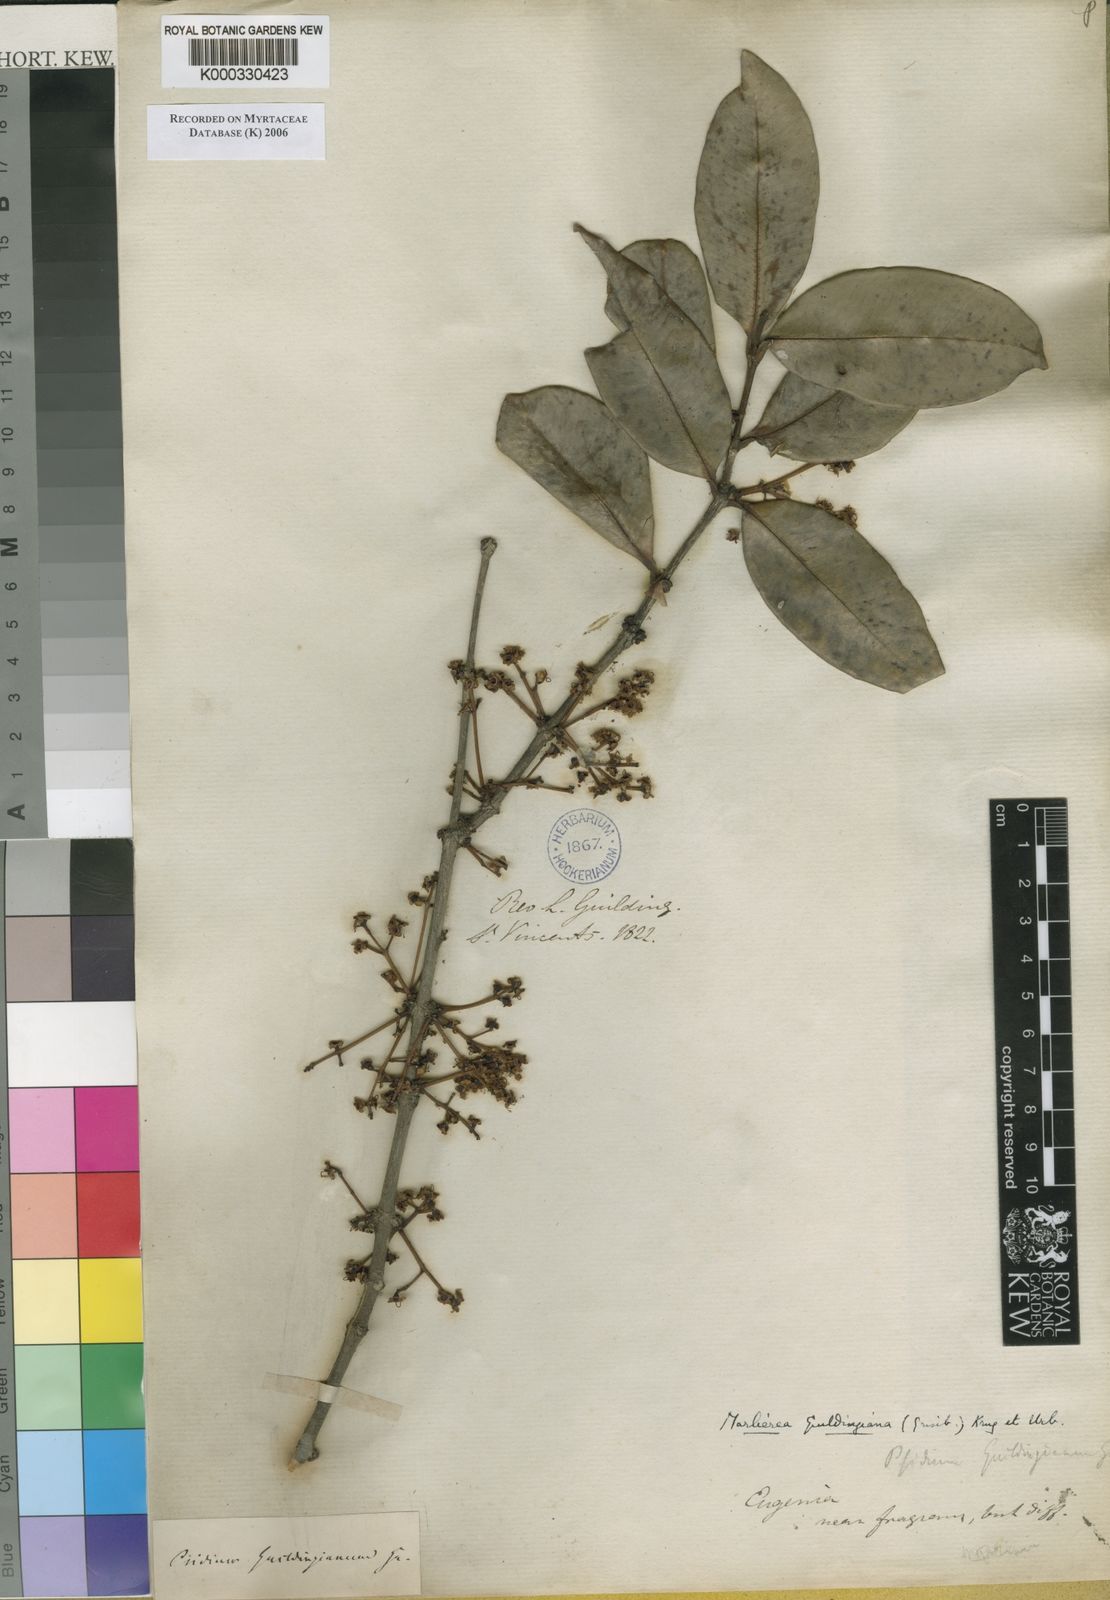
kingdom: Plantae
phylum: Tracheophyta
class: Magnoliopsida
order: Myrtales
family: Myrtaceae
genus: Myrcia
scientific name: Myrcia guildingiana
